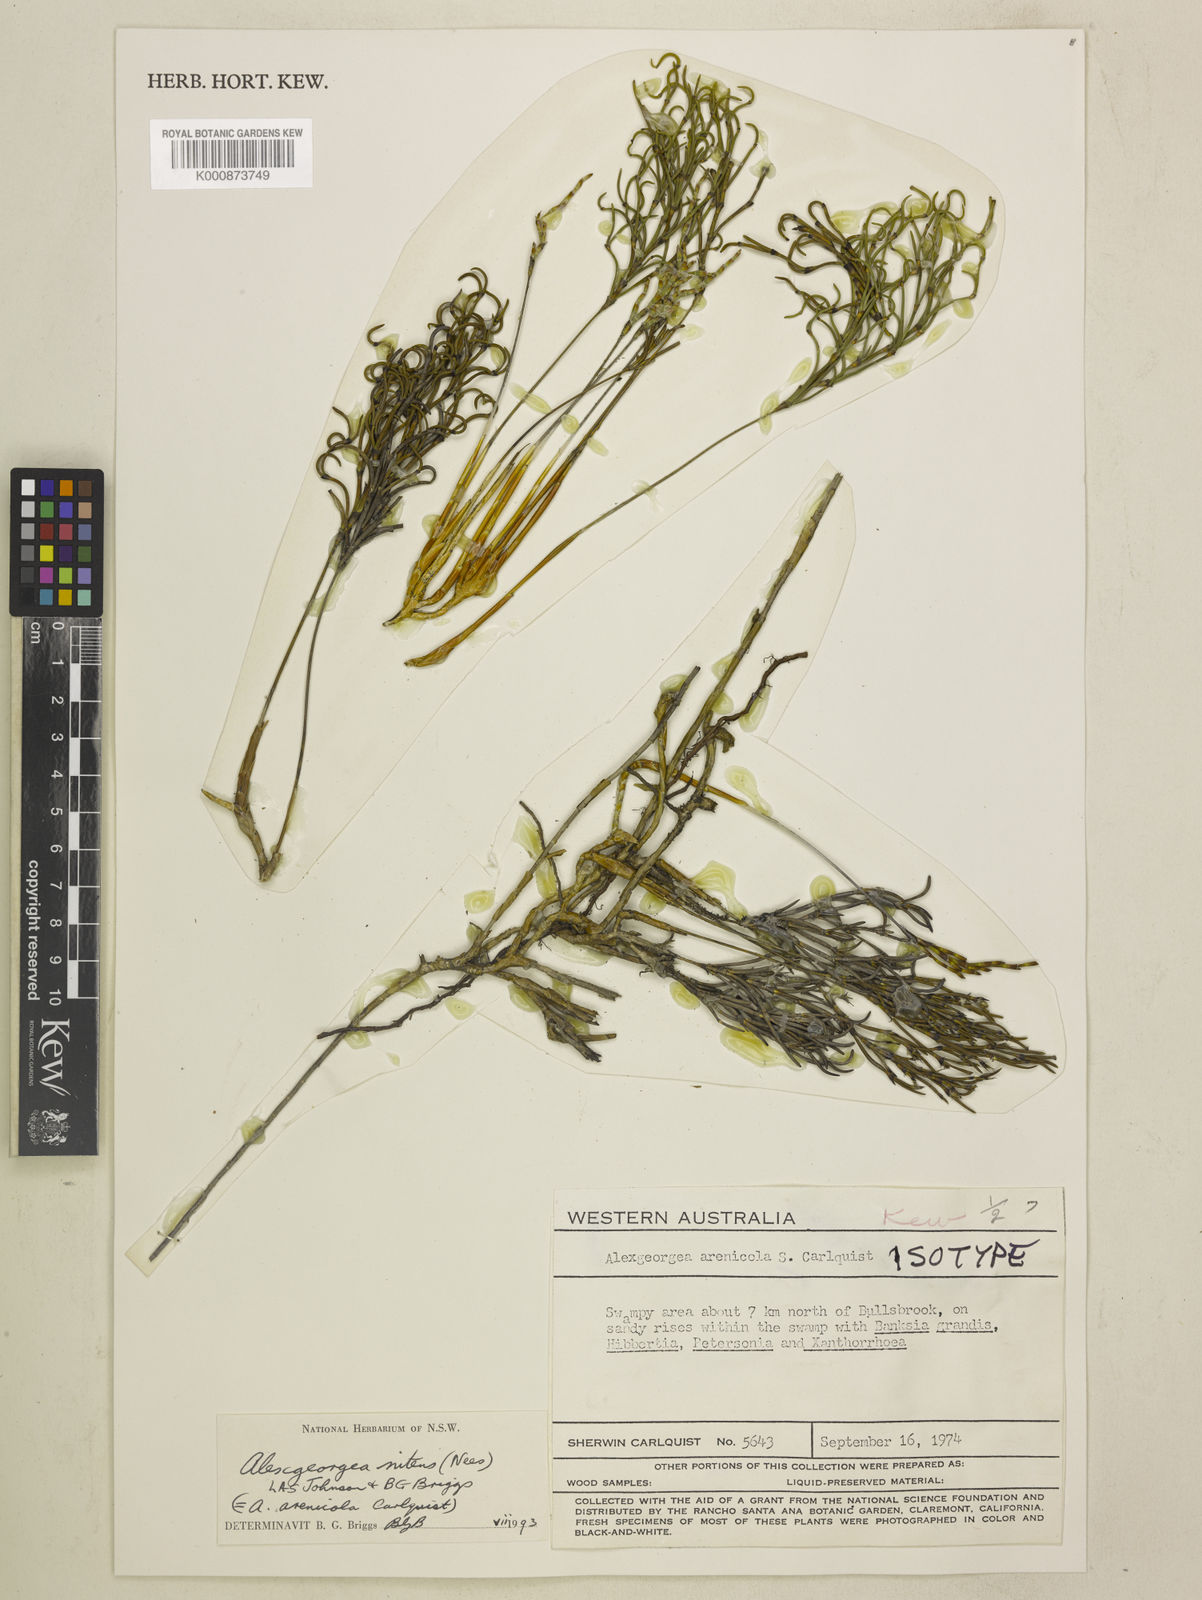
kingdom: Plantae
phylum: Tracheophyta
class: Liliopsida
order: Poales
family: Restionaceae
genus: Alexgeorgea
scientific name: Alexgeorgea nitens
